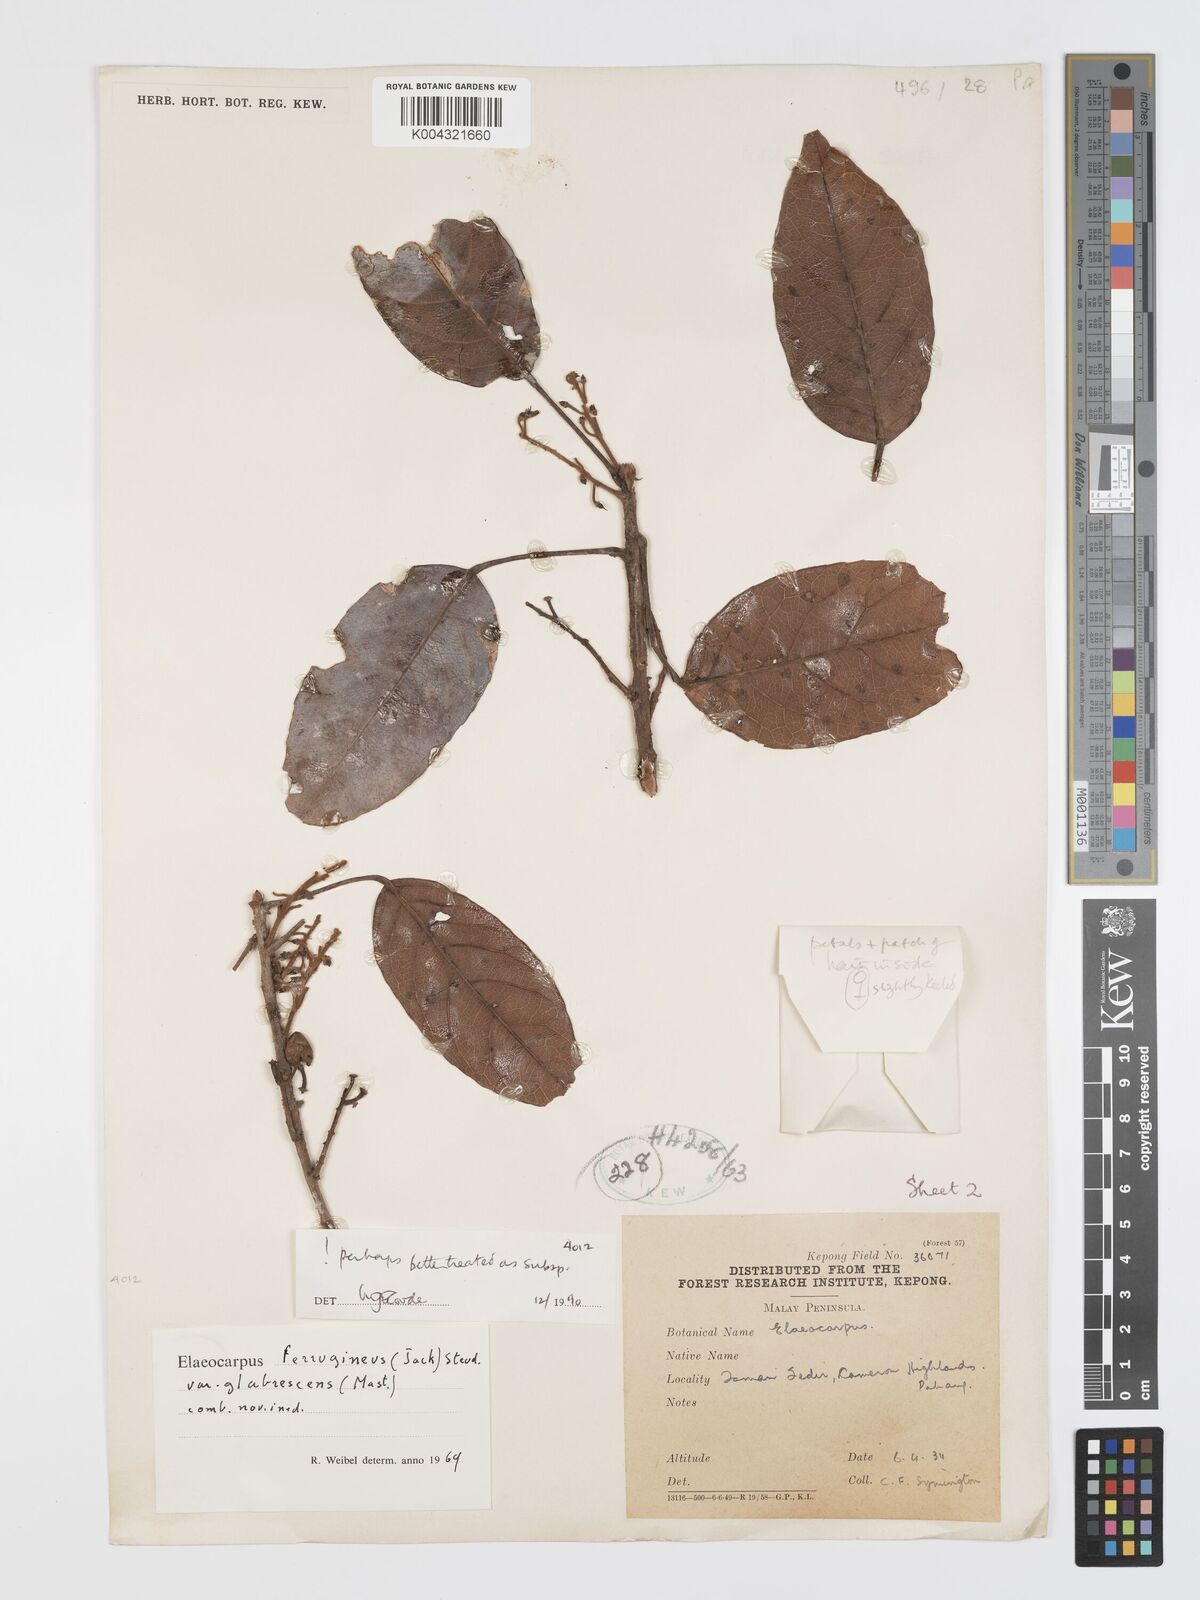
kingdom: Plantae
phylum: Tracheophyta
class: Magnoliopsida
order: Oxalidales
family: Elaeocarpaceae
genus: Elaeocarpus
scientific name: Elaeocarpus ferrugineus
